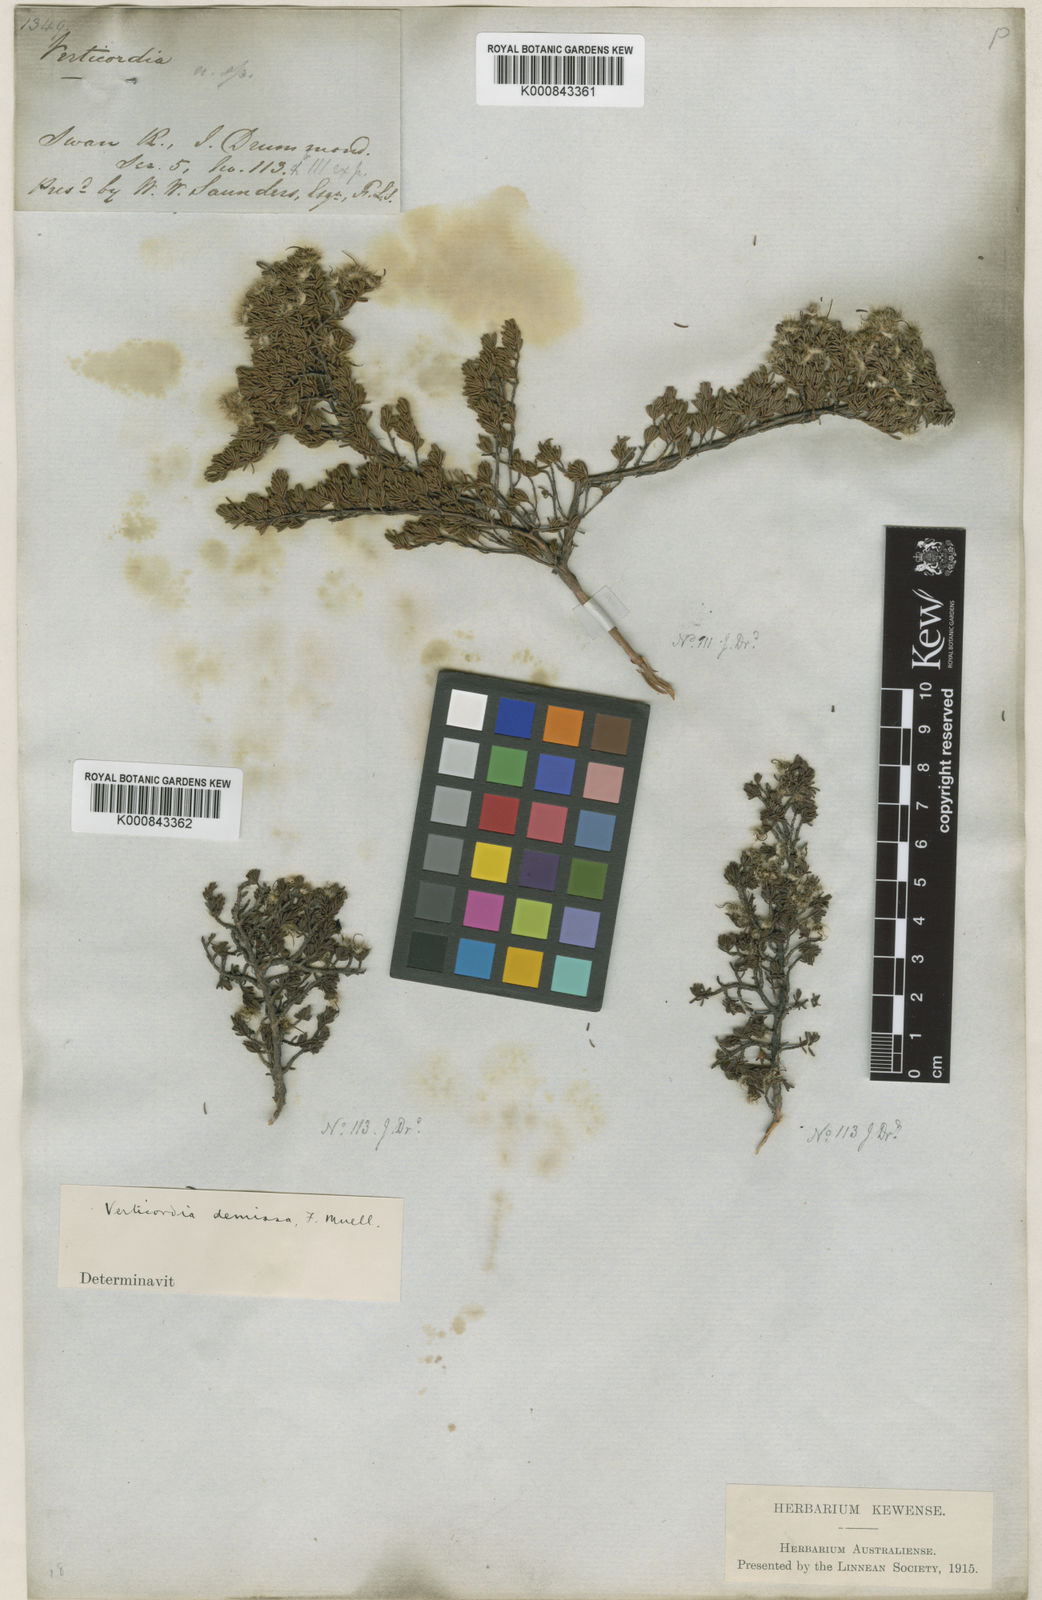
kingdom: Plantae
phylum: Tracheophyta
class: Magnoliopsida
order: Myrtales
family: Myrtaceae
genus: Verticordia
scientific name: Verticordia oxylepis
